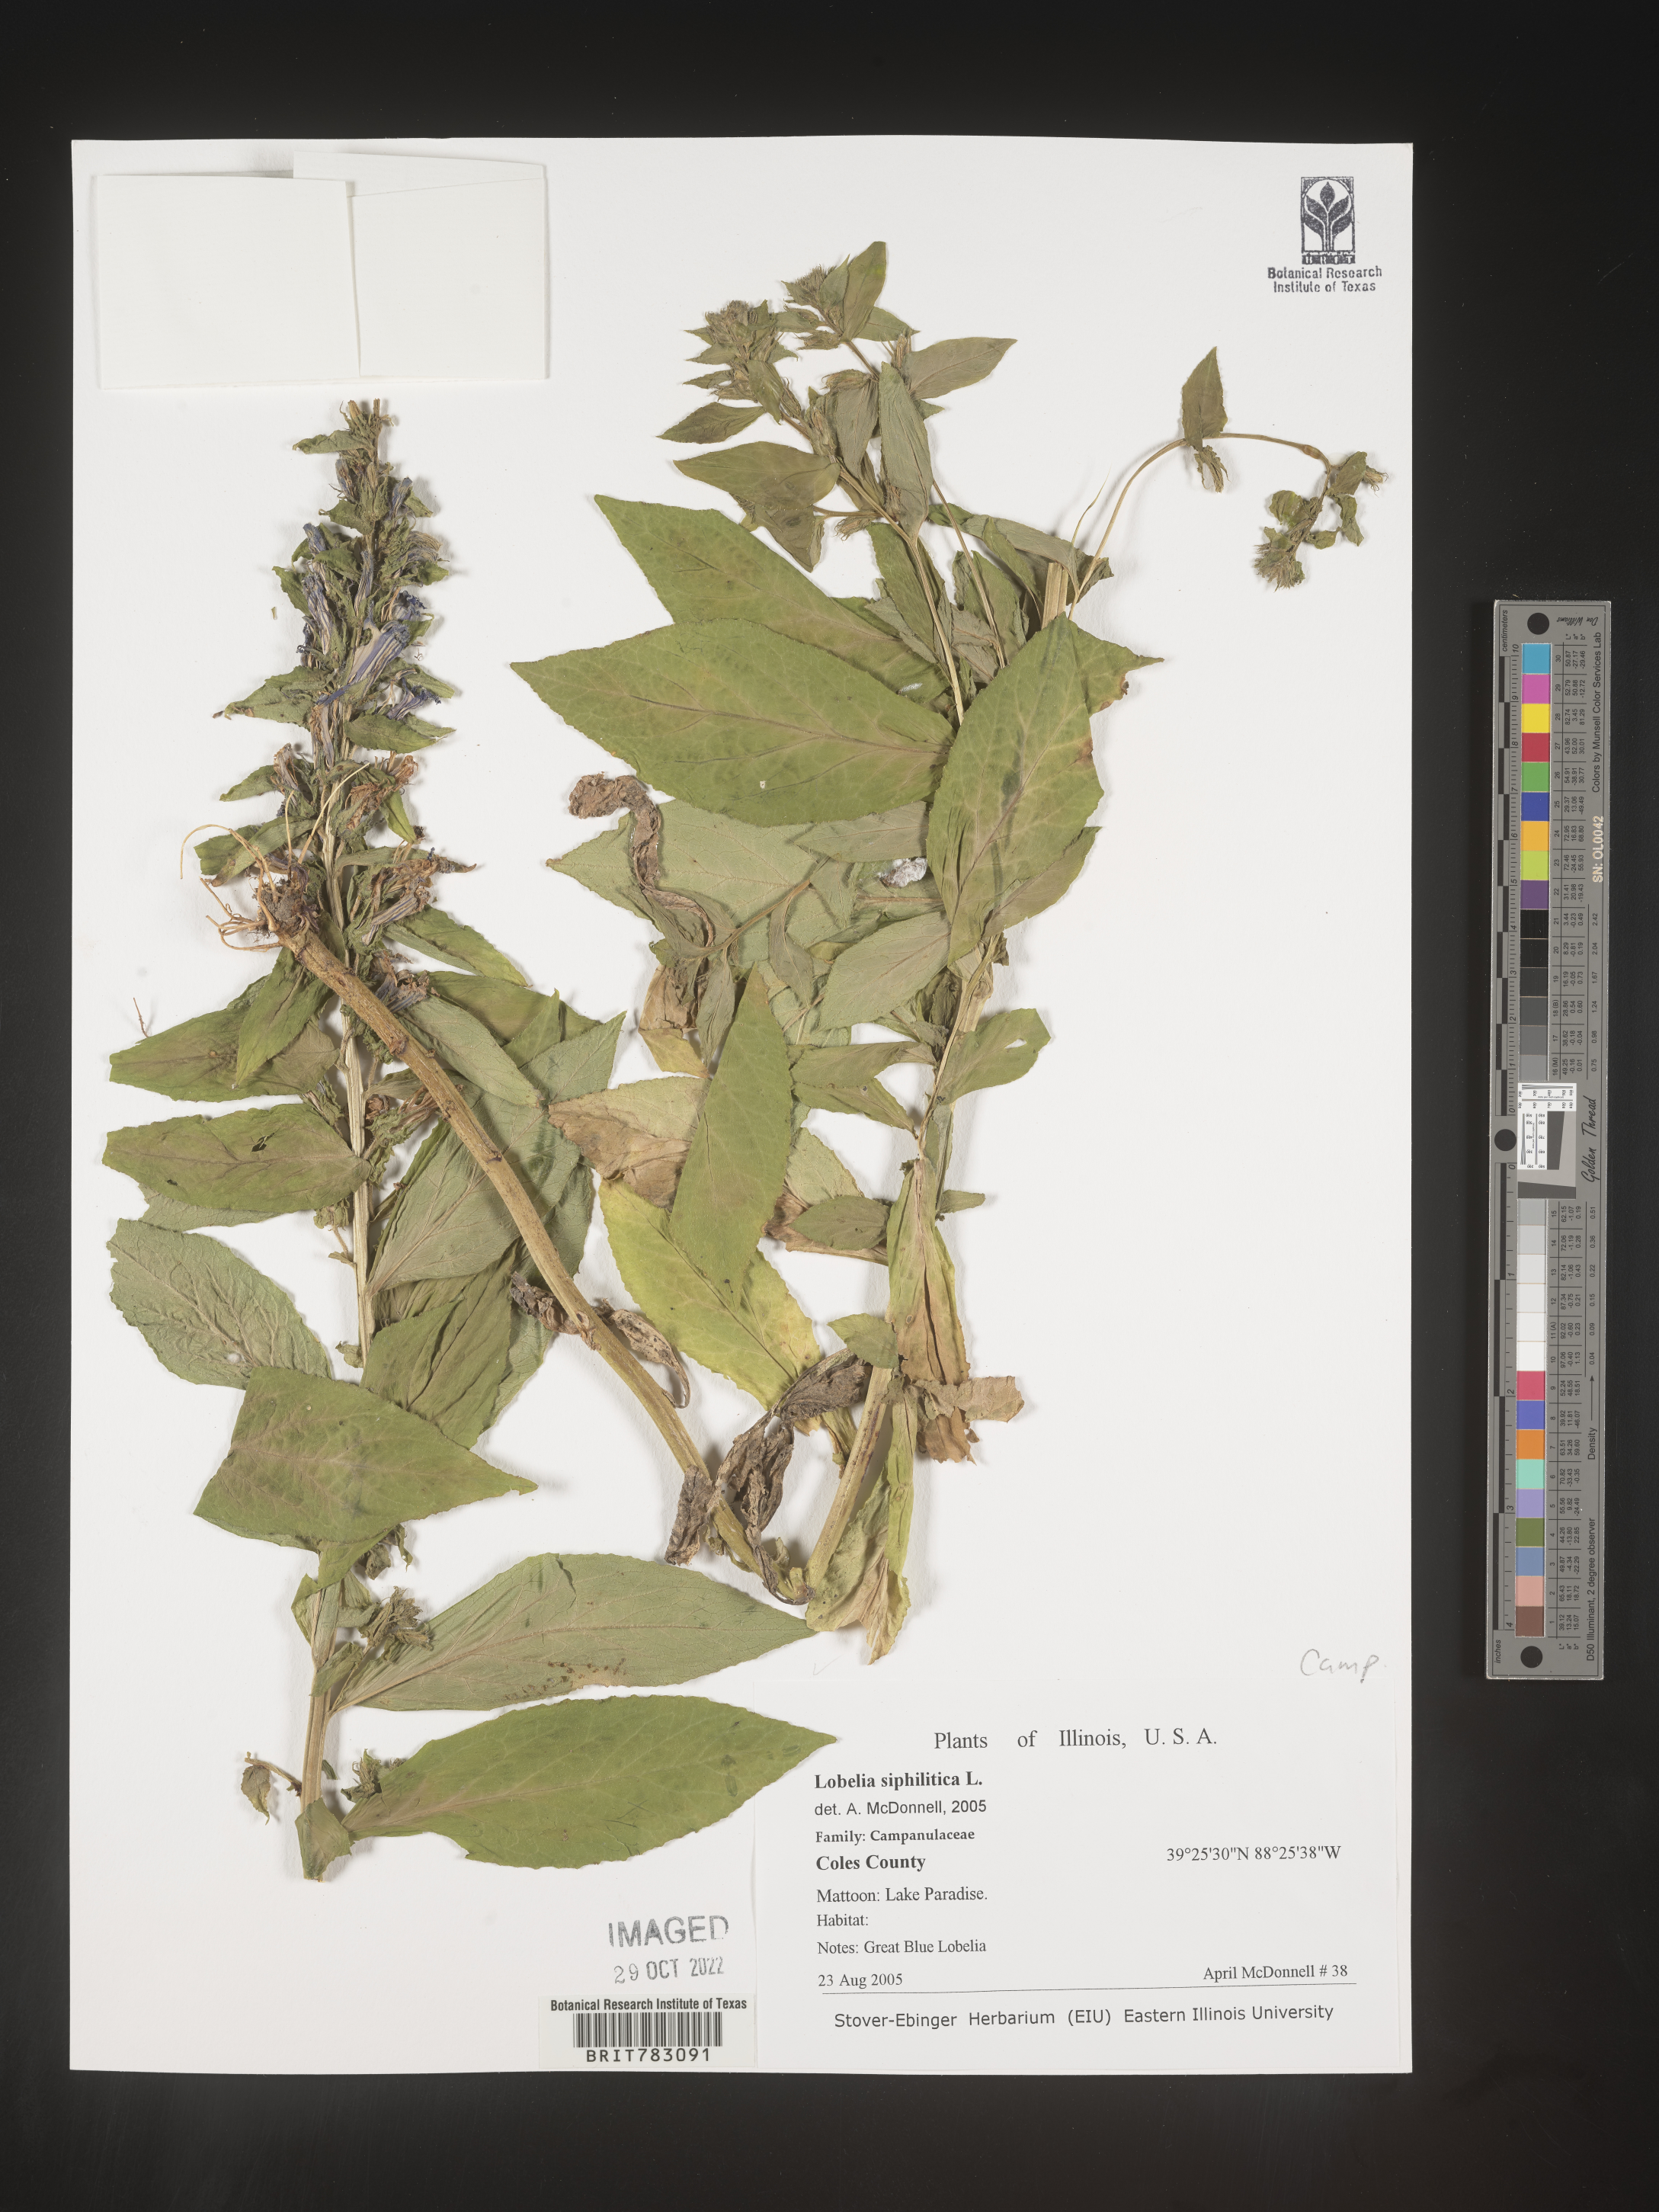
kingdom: Plantae
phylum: Tracheophyta
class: Magnoliopsida
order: Asterales
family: Campanulaceae
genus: Lobelia
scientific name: Lobelia siphilitica
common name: Great lobelia
